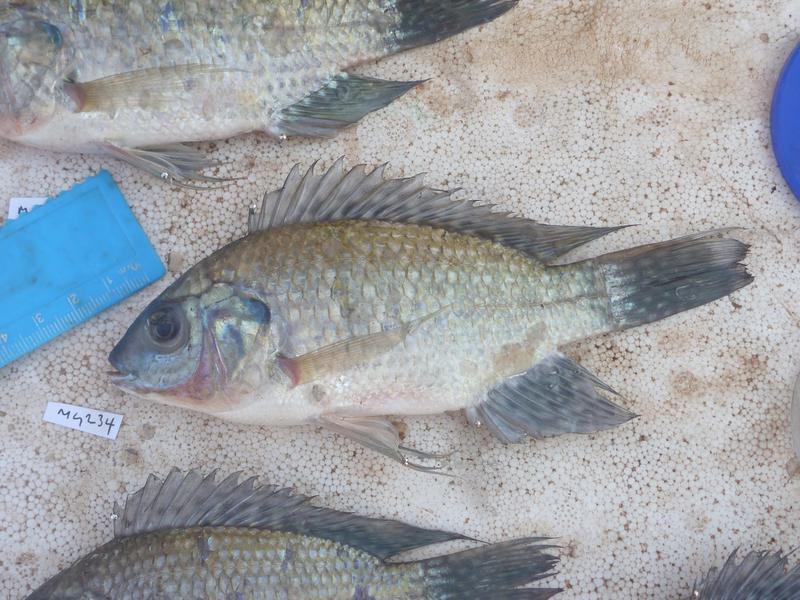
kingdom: Animalia
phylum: Chordata
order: Perciformes
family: Cichlidae
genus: Oreochromis
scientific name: Oreochromis leucostictus
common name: Blue spotted tilapia
